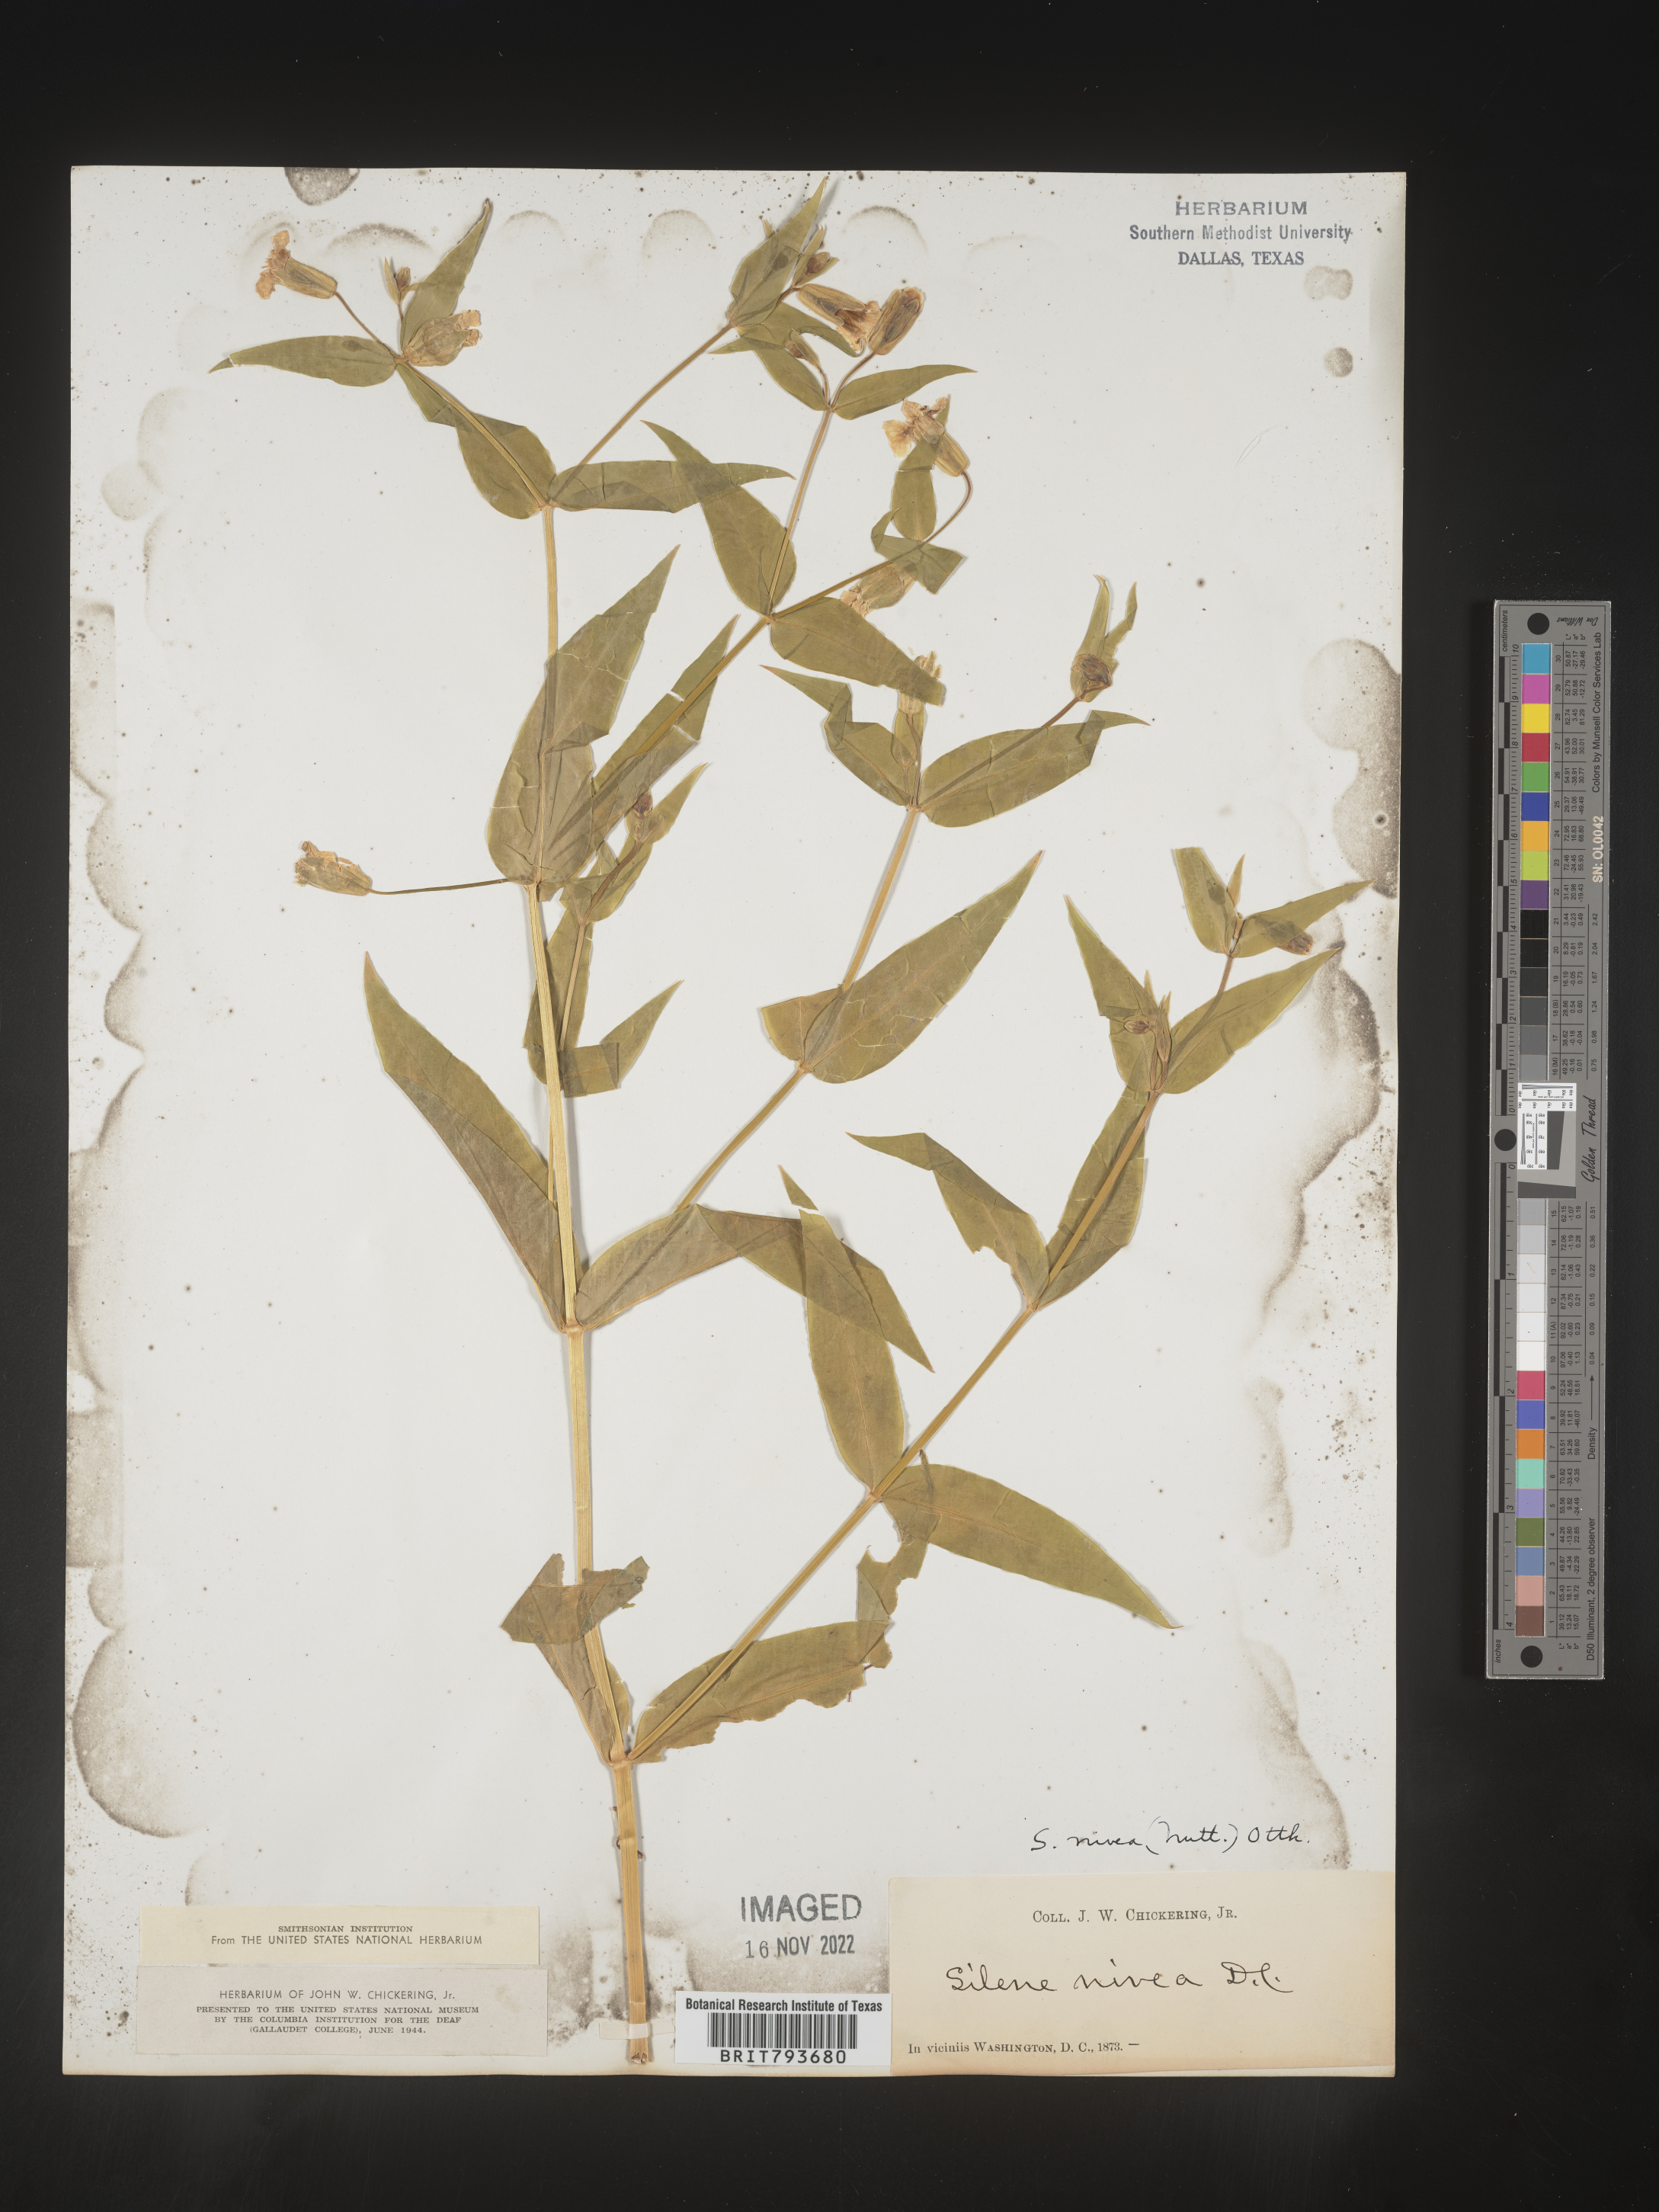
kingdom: Plantae
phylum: Tracheophyta
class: Magnoliopsida
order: Caryophyllales
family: Caryophyllaceae
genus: Silene
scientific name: Silene nivea
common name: Snowy campion
